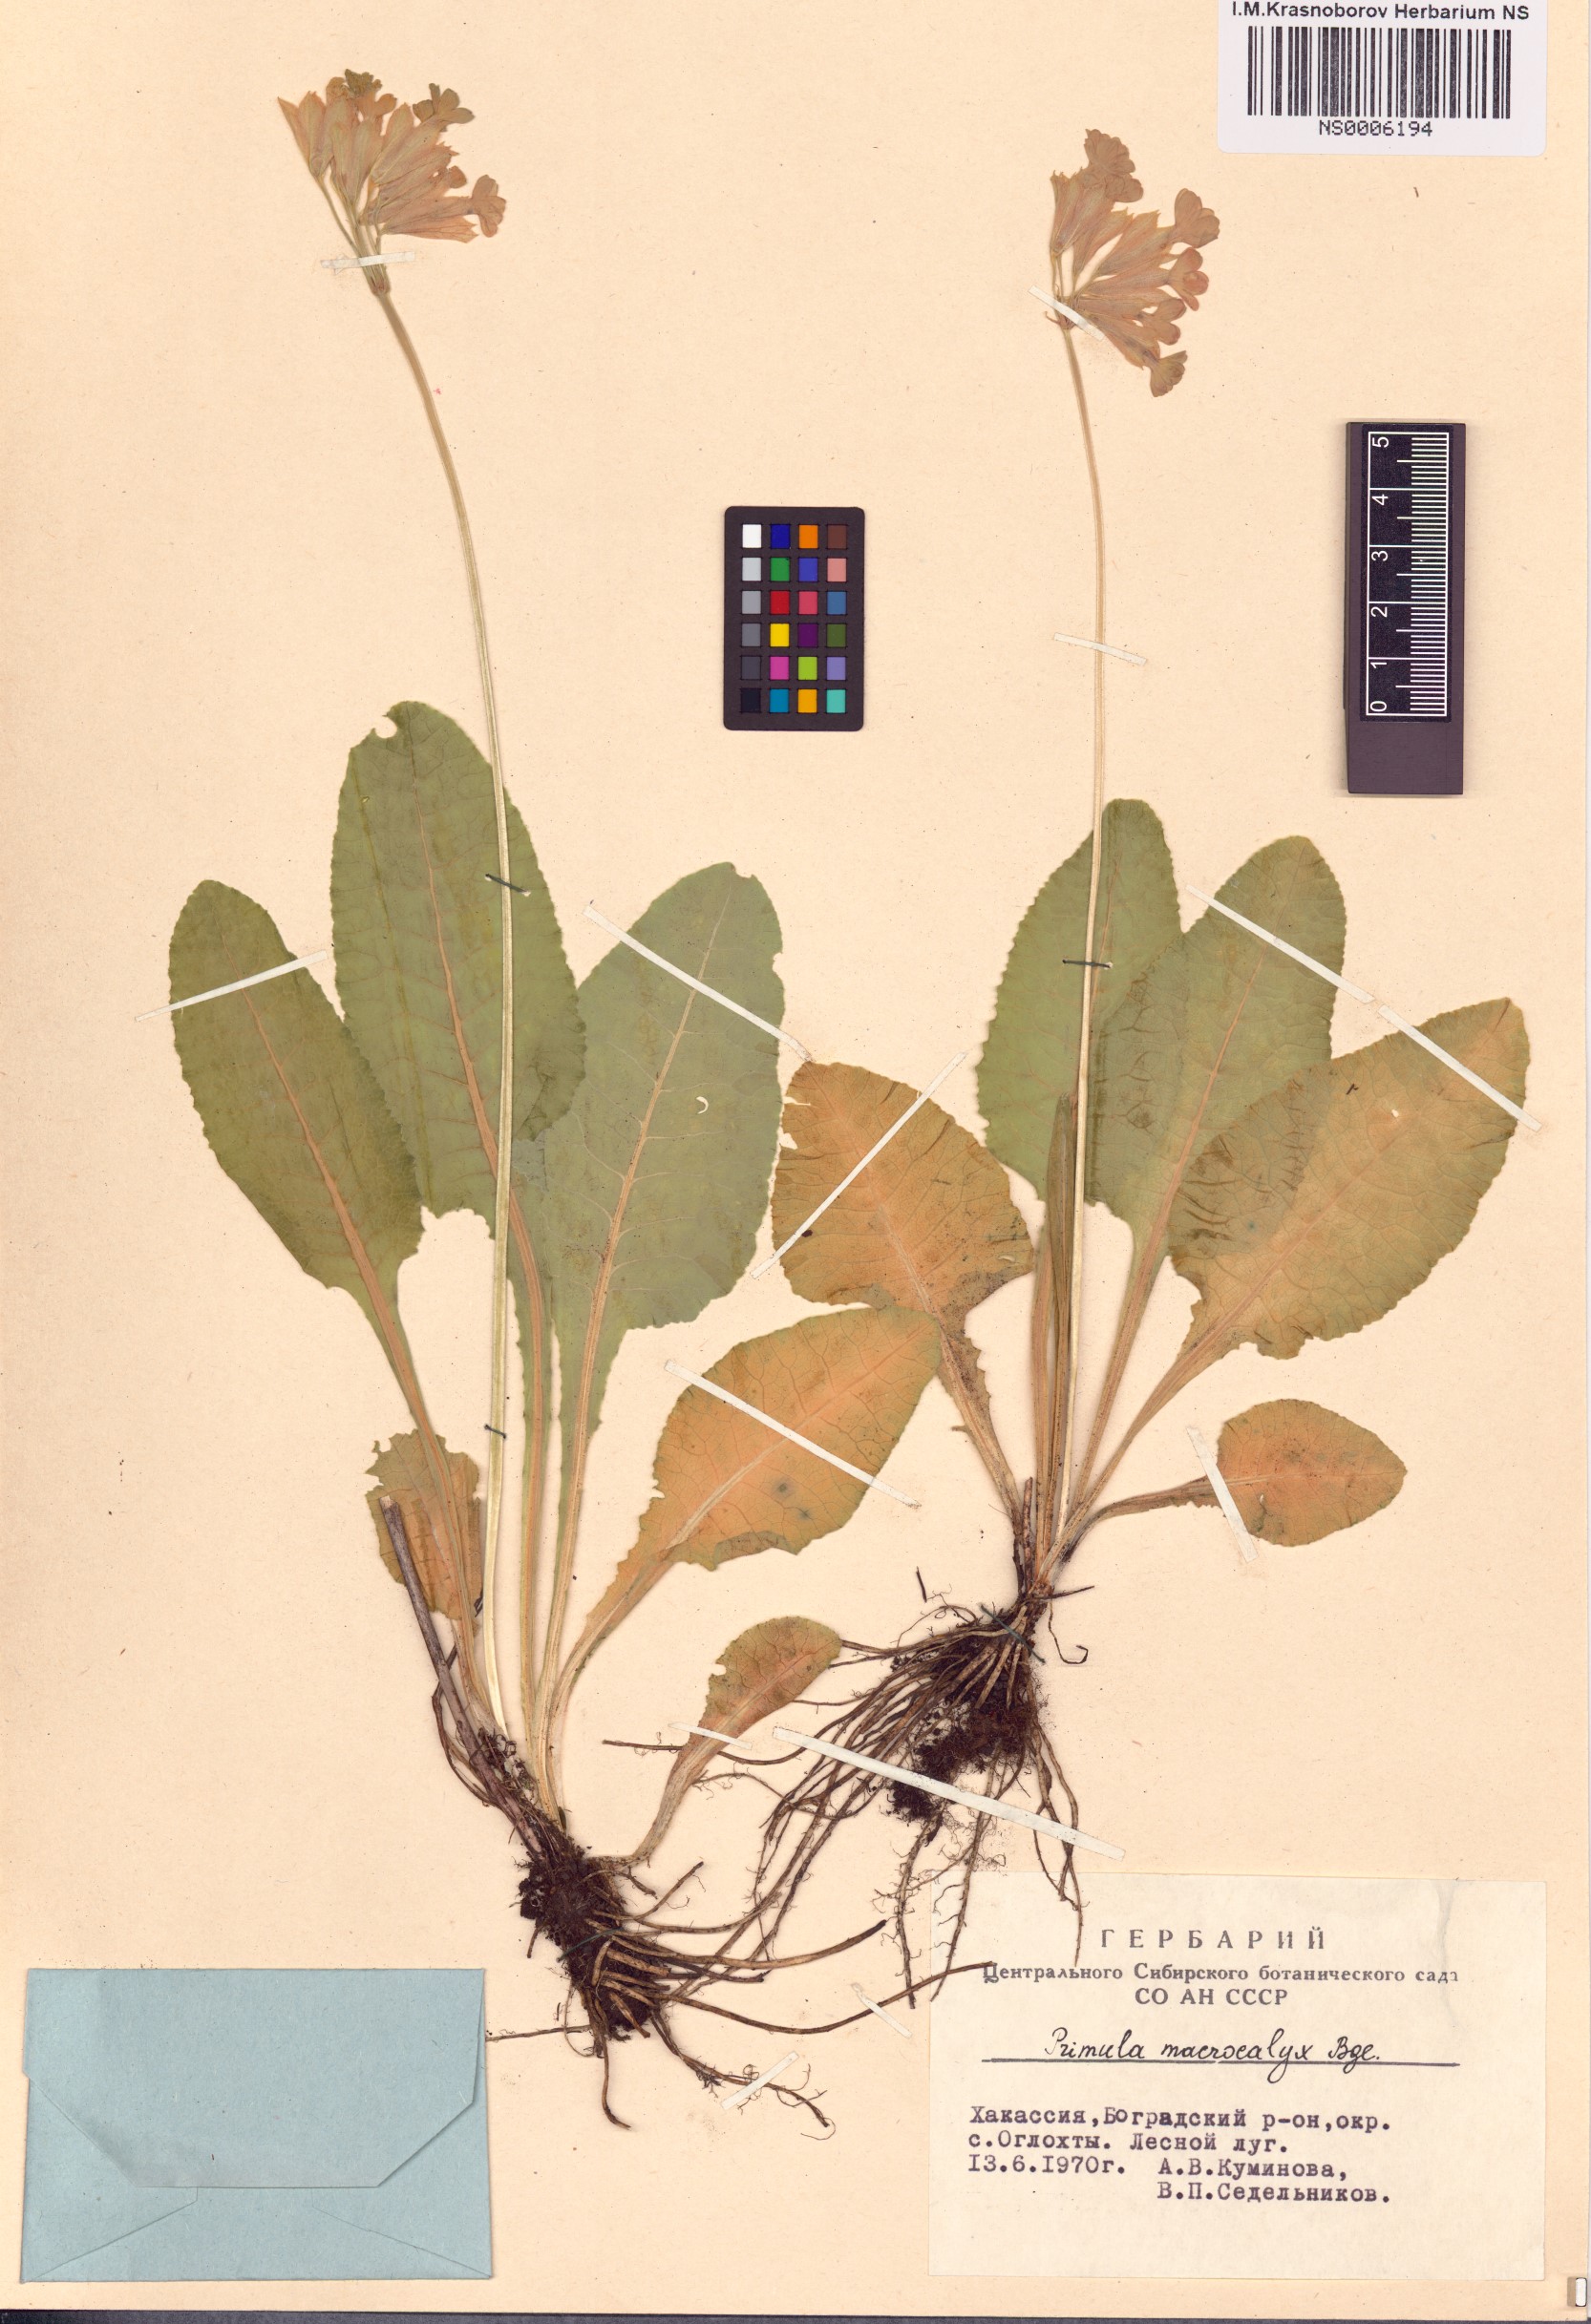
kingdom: Plantae
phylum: Tracheophyta
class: Magnoliopsida
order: Ericales
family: Primulaceae
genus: Primula
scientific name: Primula veris
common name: Cowslip
